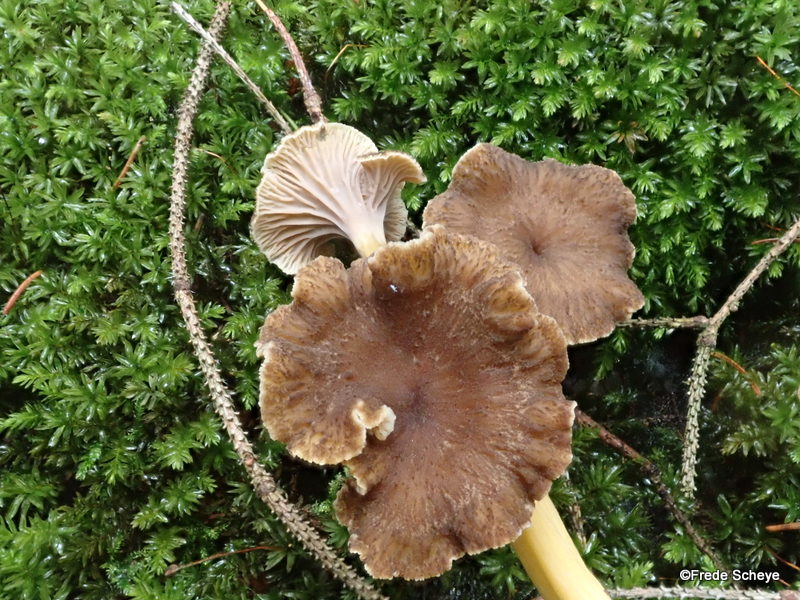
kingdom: Fungi
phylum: Basidiomycota
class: Agaricomycetes
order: Cantharellales
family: Hydnaceae
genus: Craterellus
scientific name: Craterellus tubaeformis
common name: tragt-kantarel
